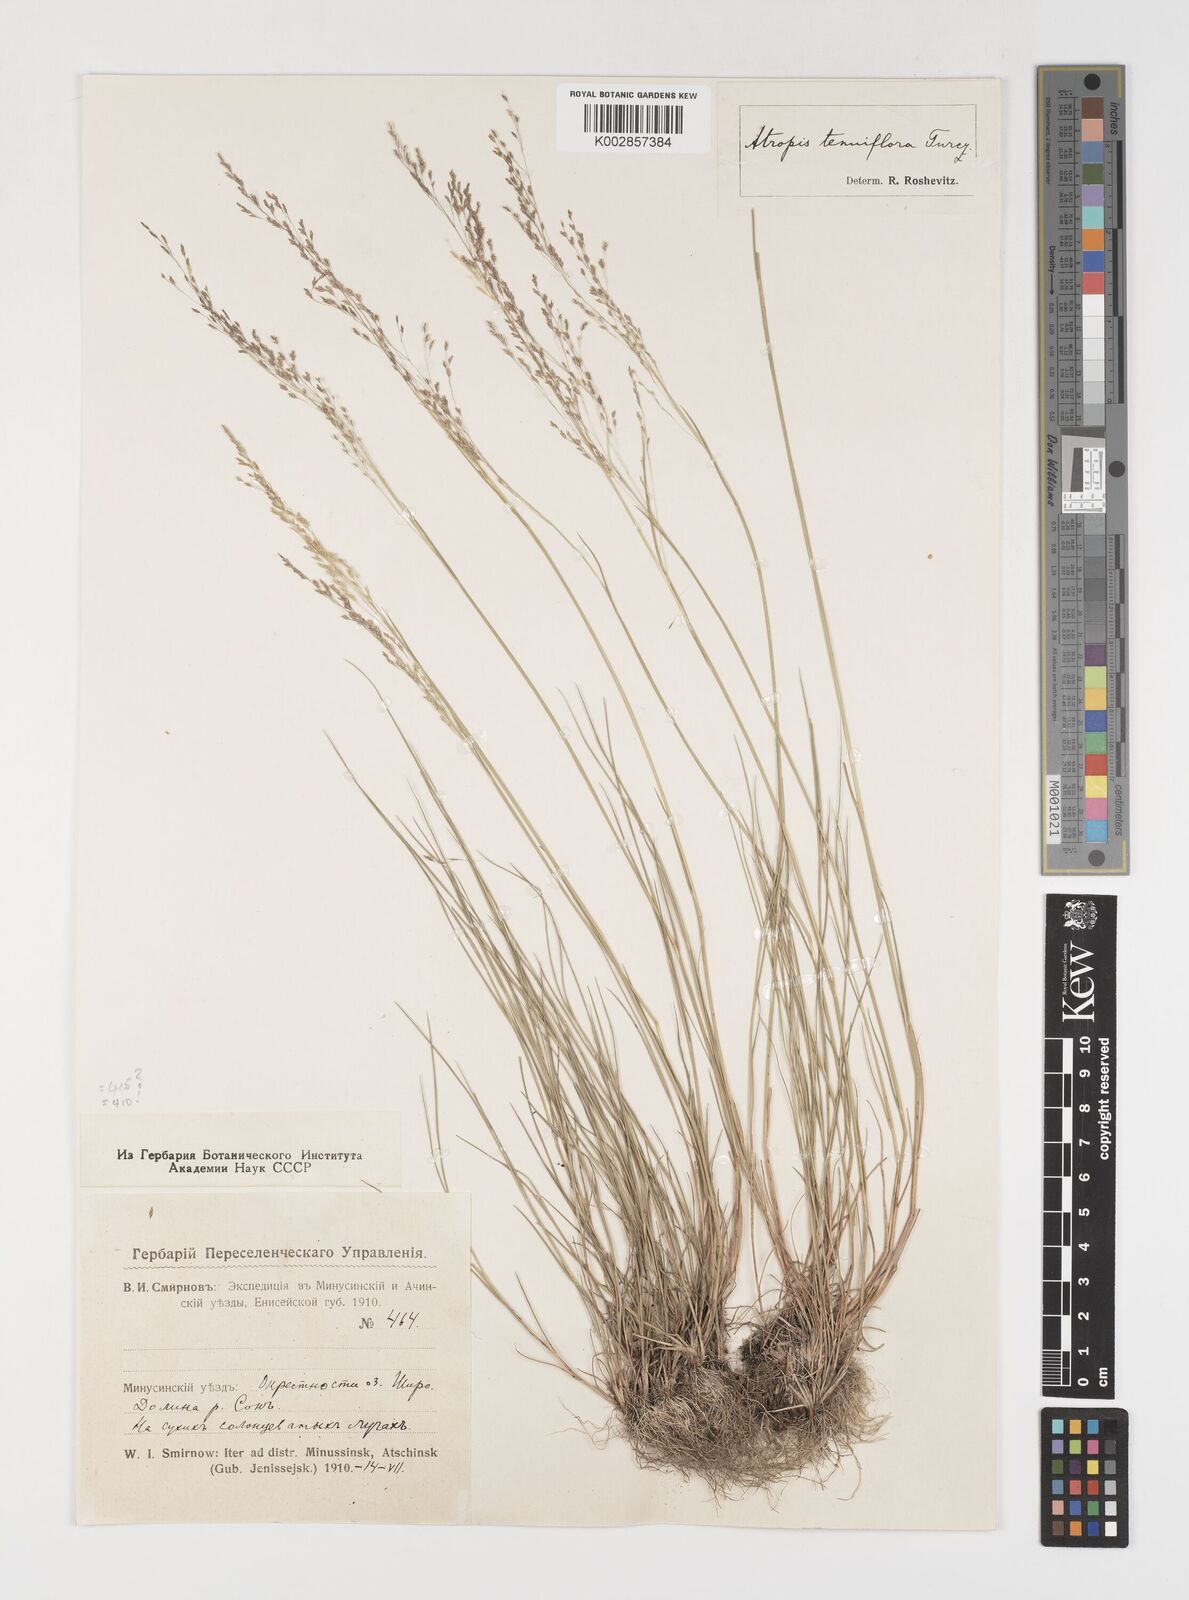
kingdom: Plantae
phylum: Tracheophyta
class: Liliopsida
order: Poales
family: Poaceae
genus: Puccinellia
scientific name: Puccinellia tenuiflora
